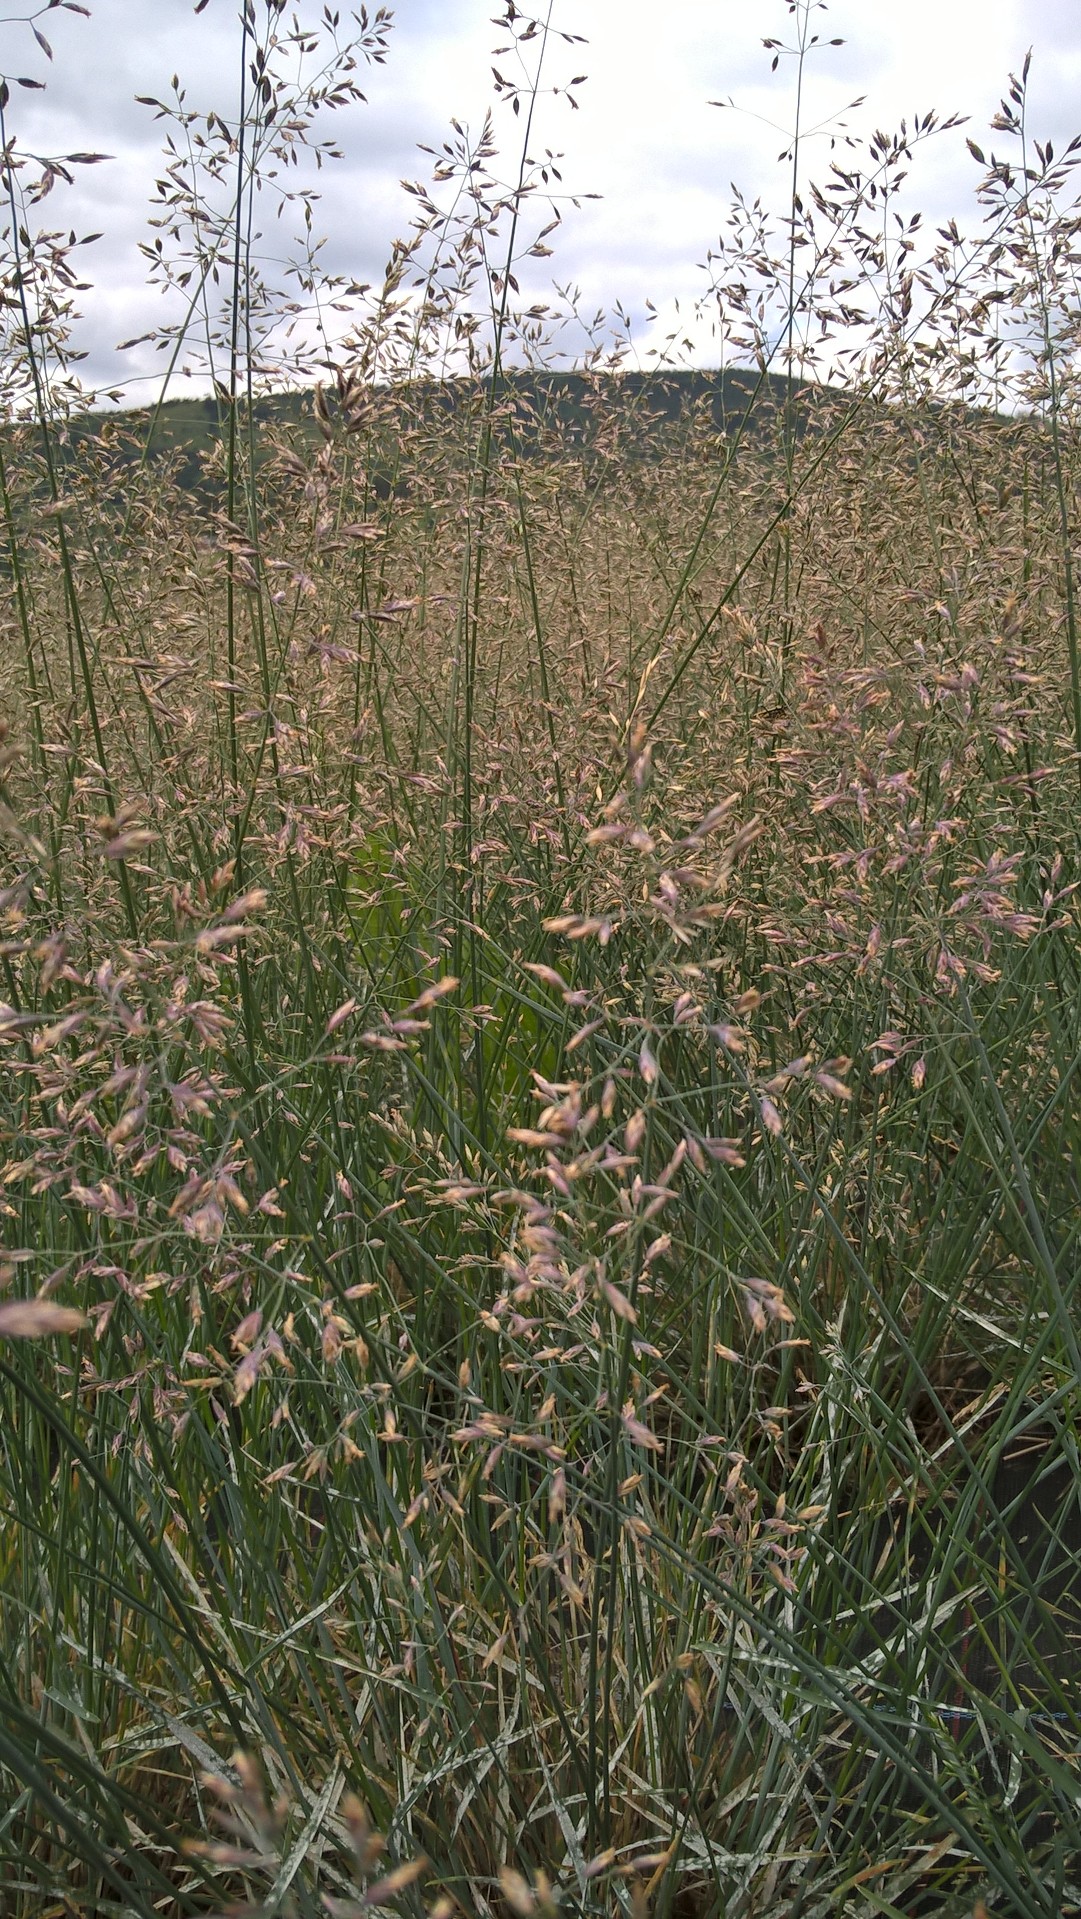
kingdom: Plantae
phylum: Tracheophyta
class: Liliopsida
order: Poales
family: Poaceae
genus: Poa
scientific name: Poa pratensis
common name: Kentucky bluegrass
